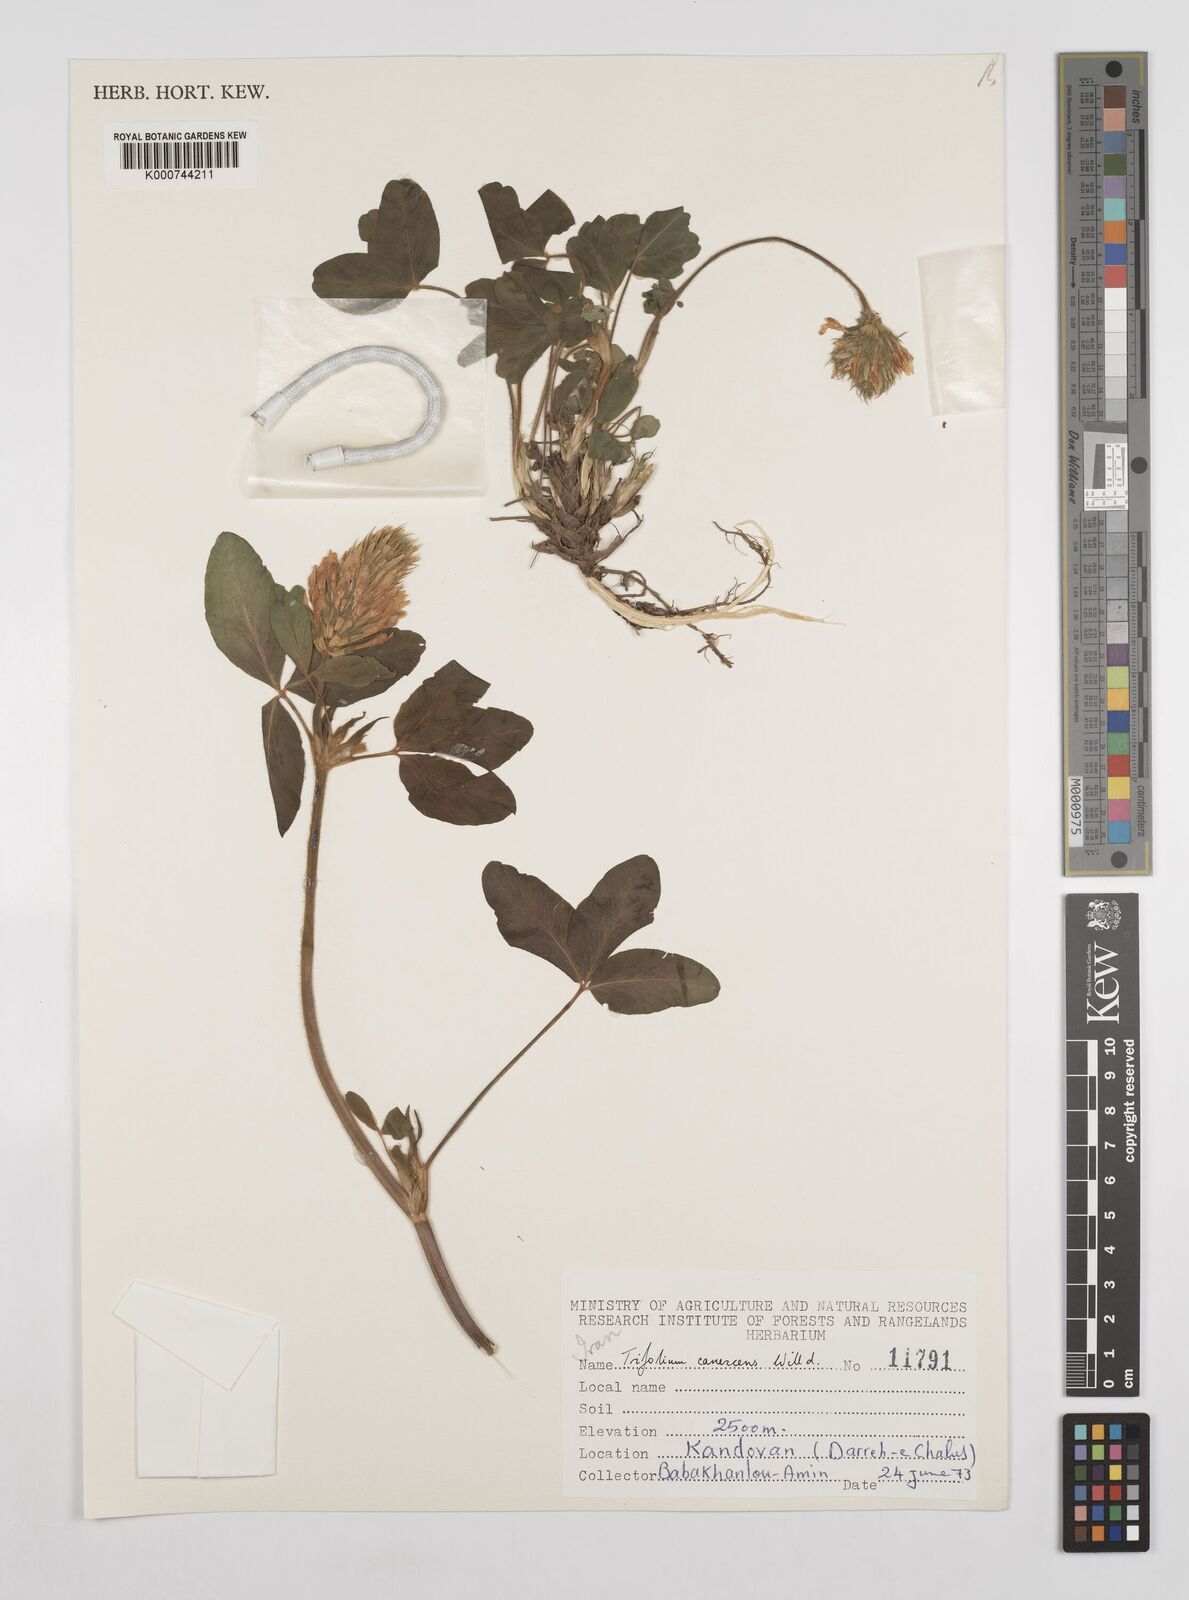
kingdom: Plantae
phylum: Tracheophyta
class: Magnoliopsida
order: Fabales
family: Fabaceae
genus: Trifolium
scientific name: Trifolium canescens
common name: Graying clover
